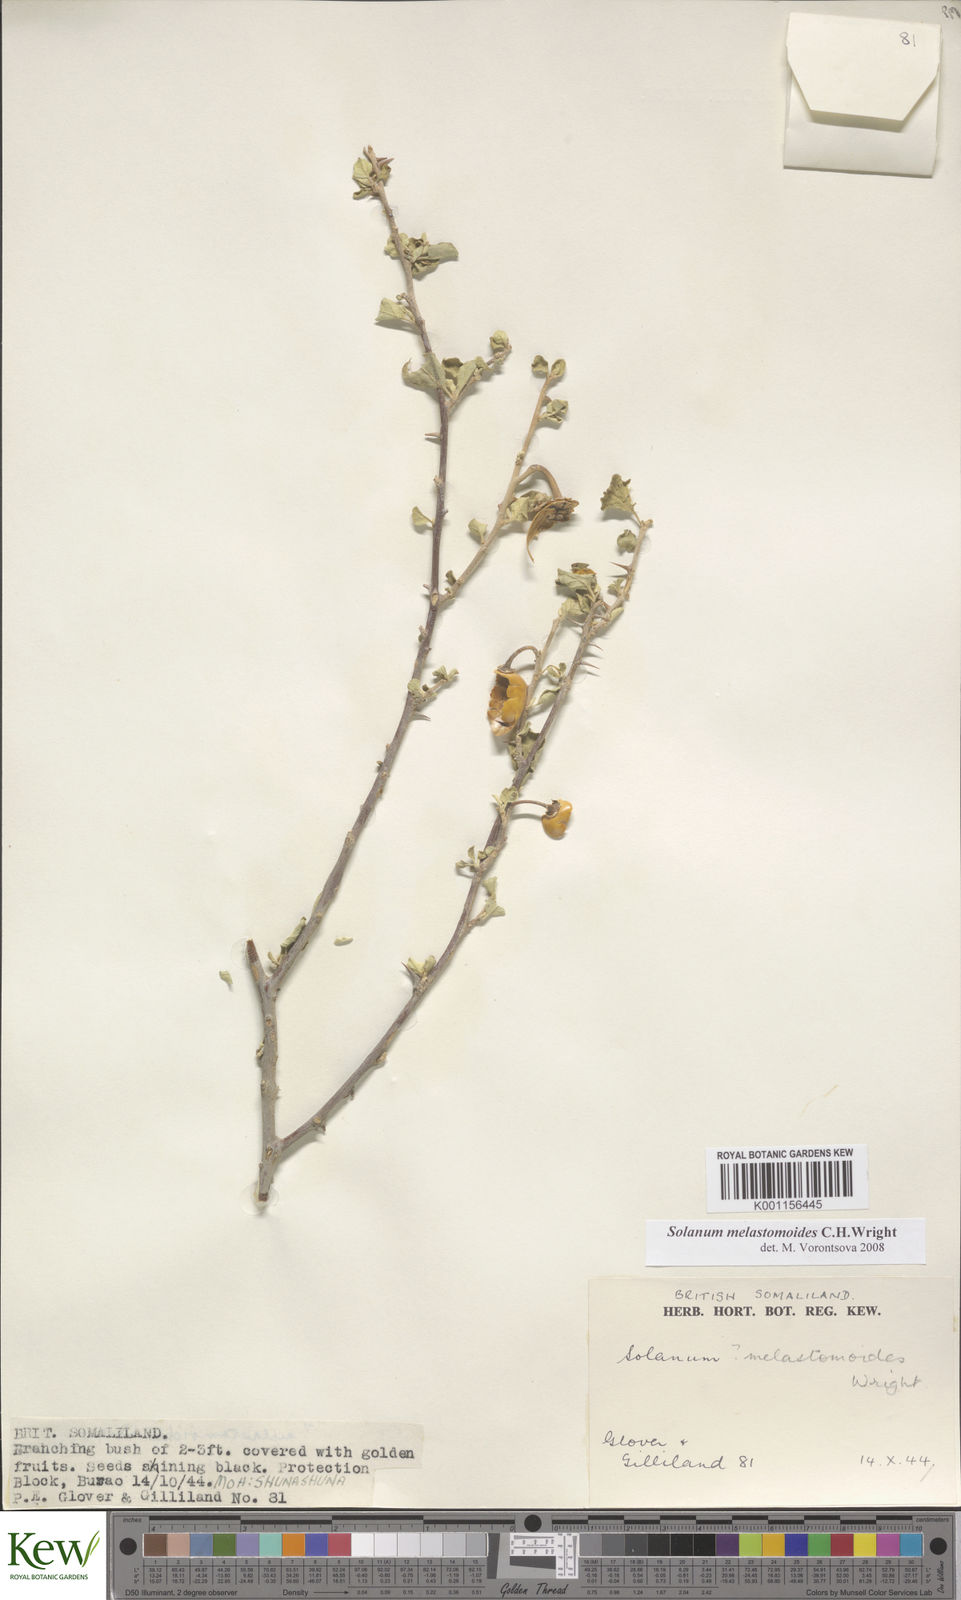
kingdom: Plantae
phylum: Tracheophyta
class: Magnoliopsida
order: Solanales
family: Solanaceae
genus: Solanum
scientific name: Solanum melastomoides
